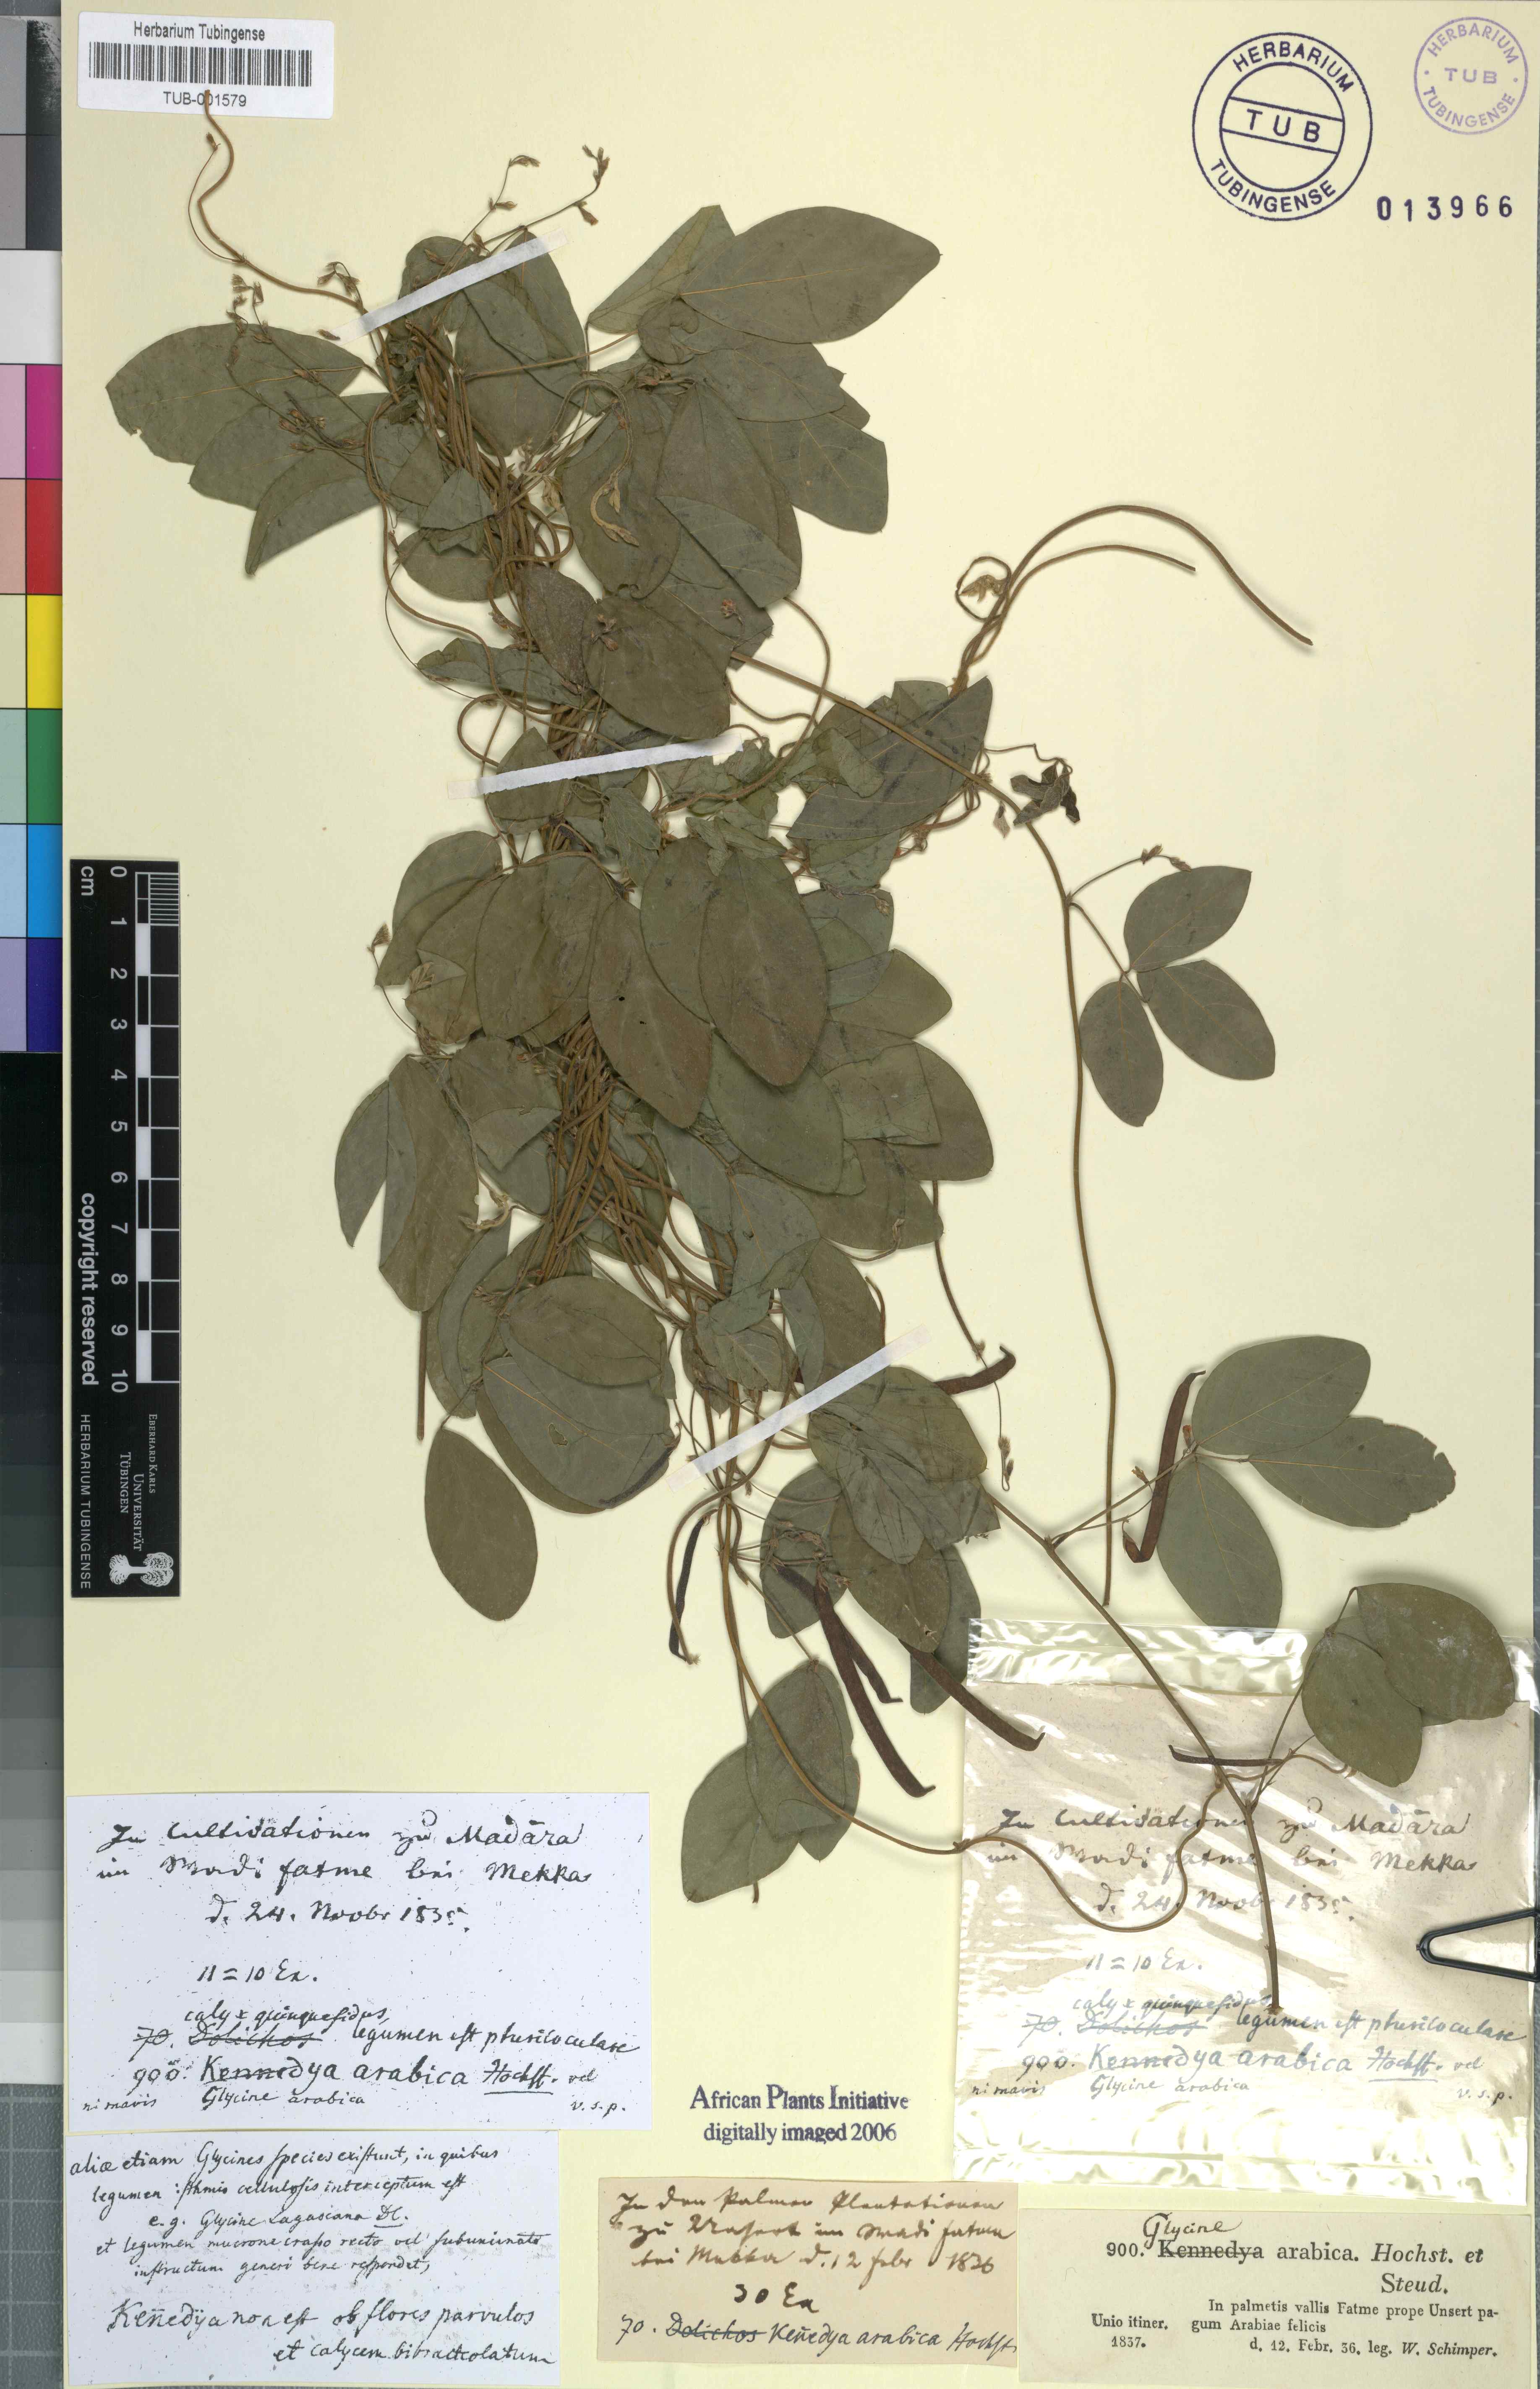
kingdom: Plantae
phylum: Tracheophyta
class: Magnoliopsida
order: Fabales
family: Fabaceae
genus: Teramnus
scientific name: Teramnus labialis
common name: Blue wiss
